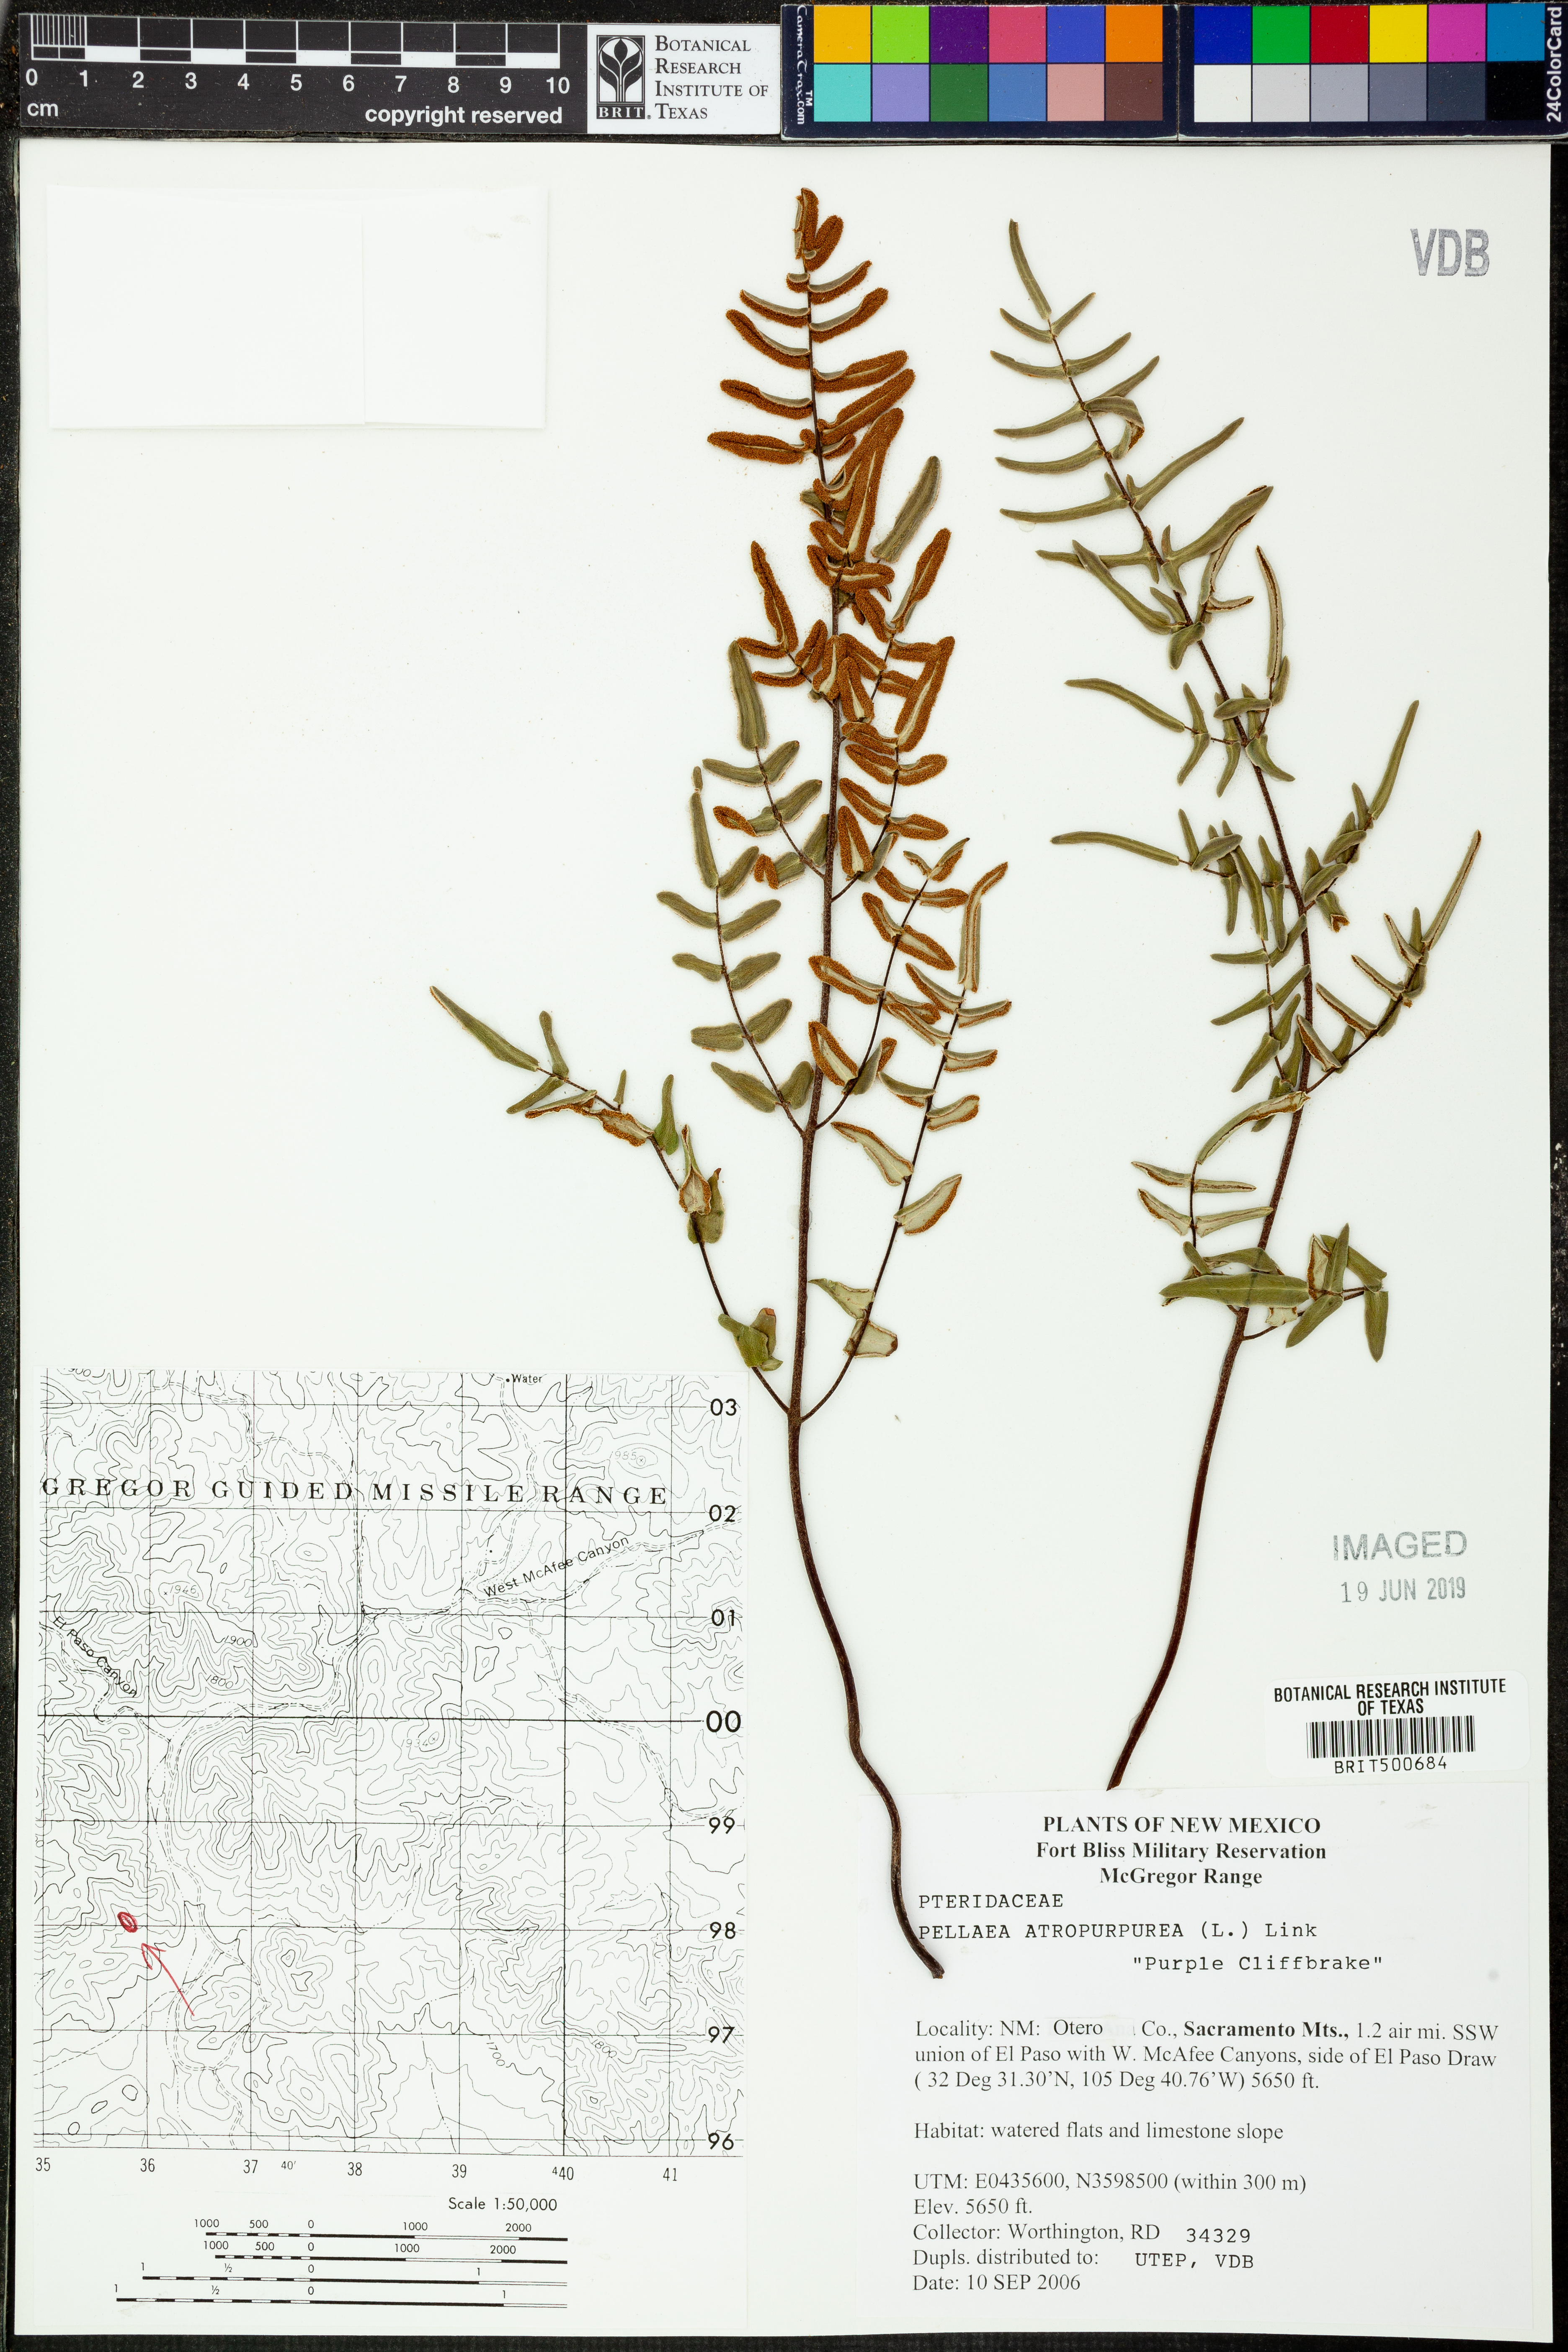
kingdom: Plantae
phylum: Tracheophyta
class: Polypodiopsida
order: Polypodiales
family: Pteridaceae
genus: Pellaea
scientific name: Pellaea atropurpurea
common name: Hairy cliffbrake
